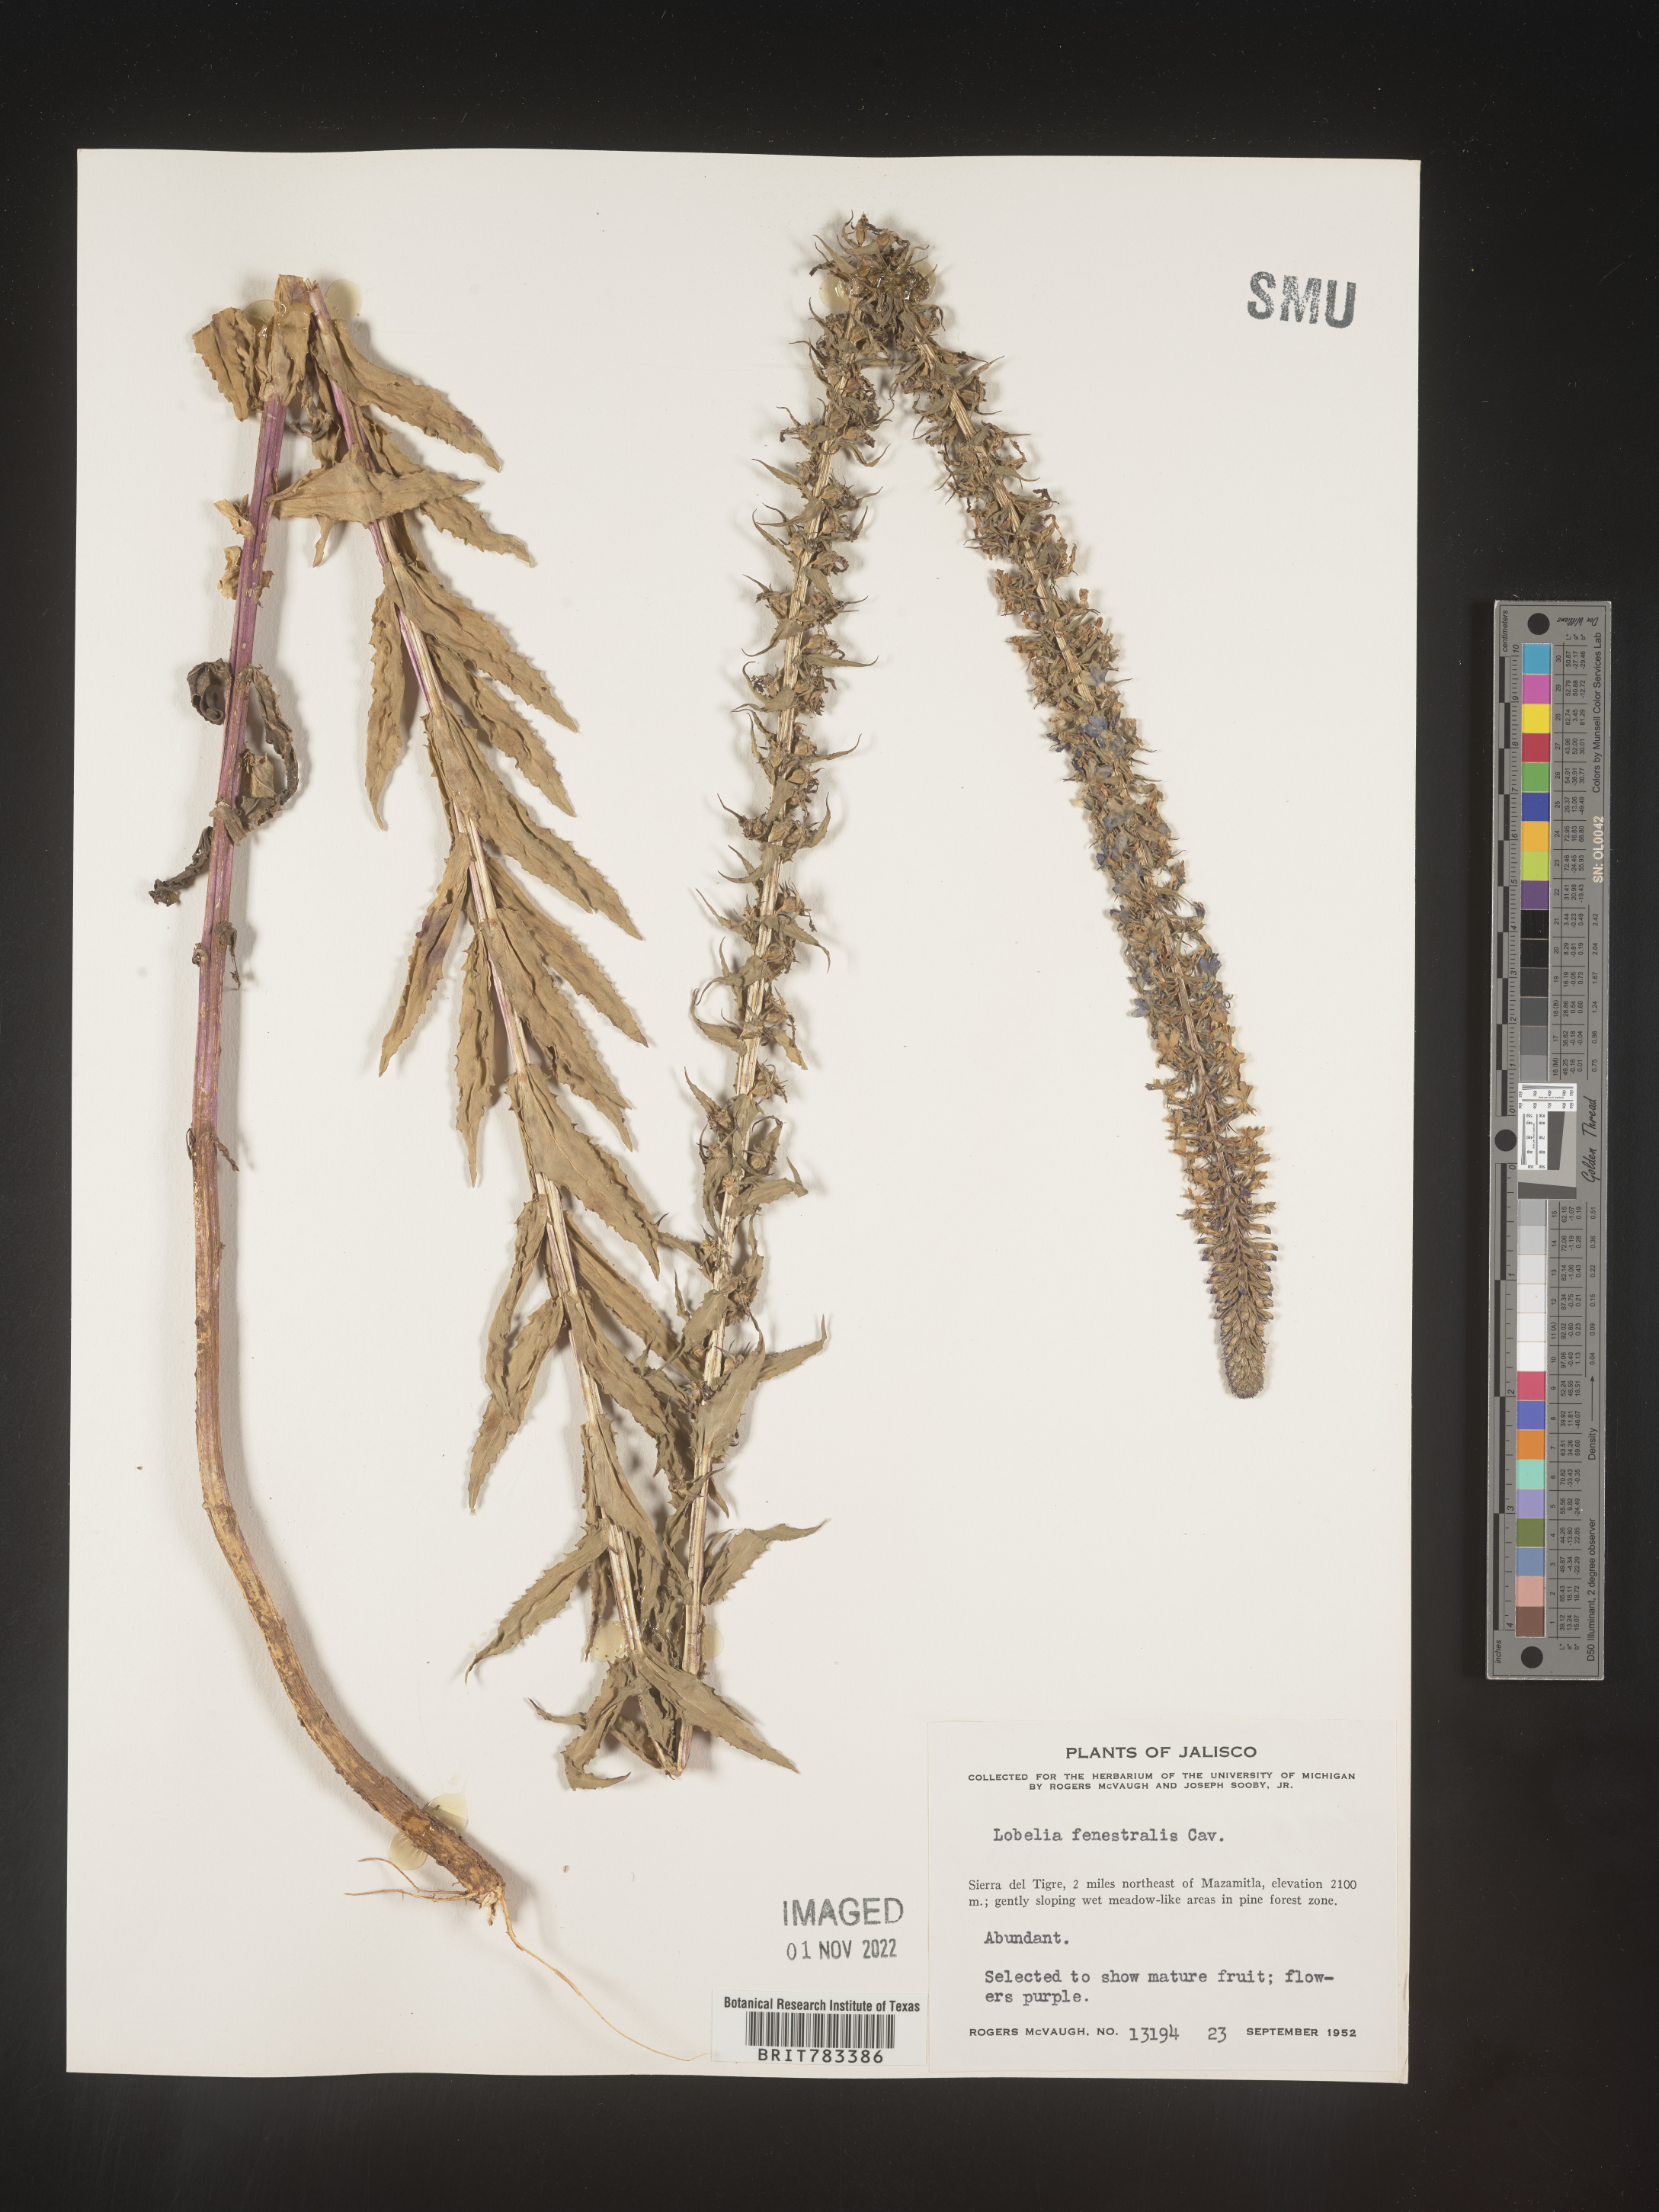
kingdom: Plantae
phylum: Tracheophyta
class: Magnoliopsida
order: Asterales
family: Campanulaceae
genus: Lobelia
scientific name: Lobelia
